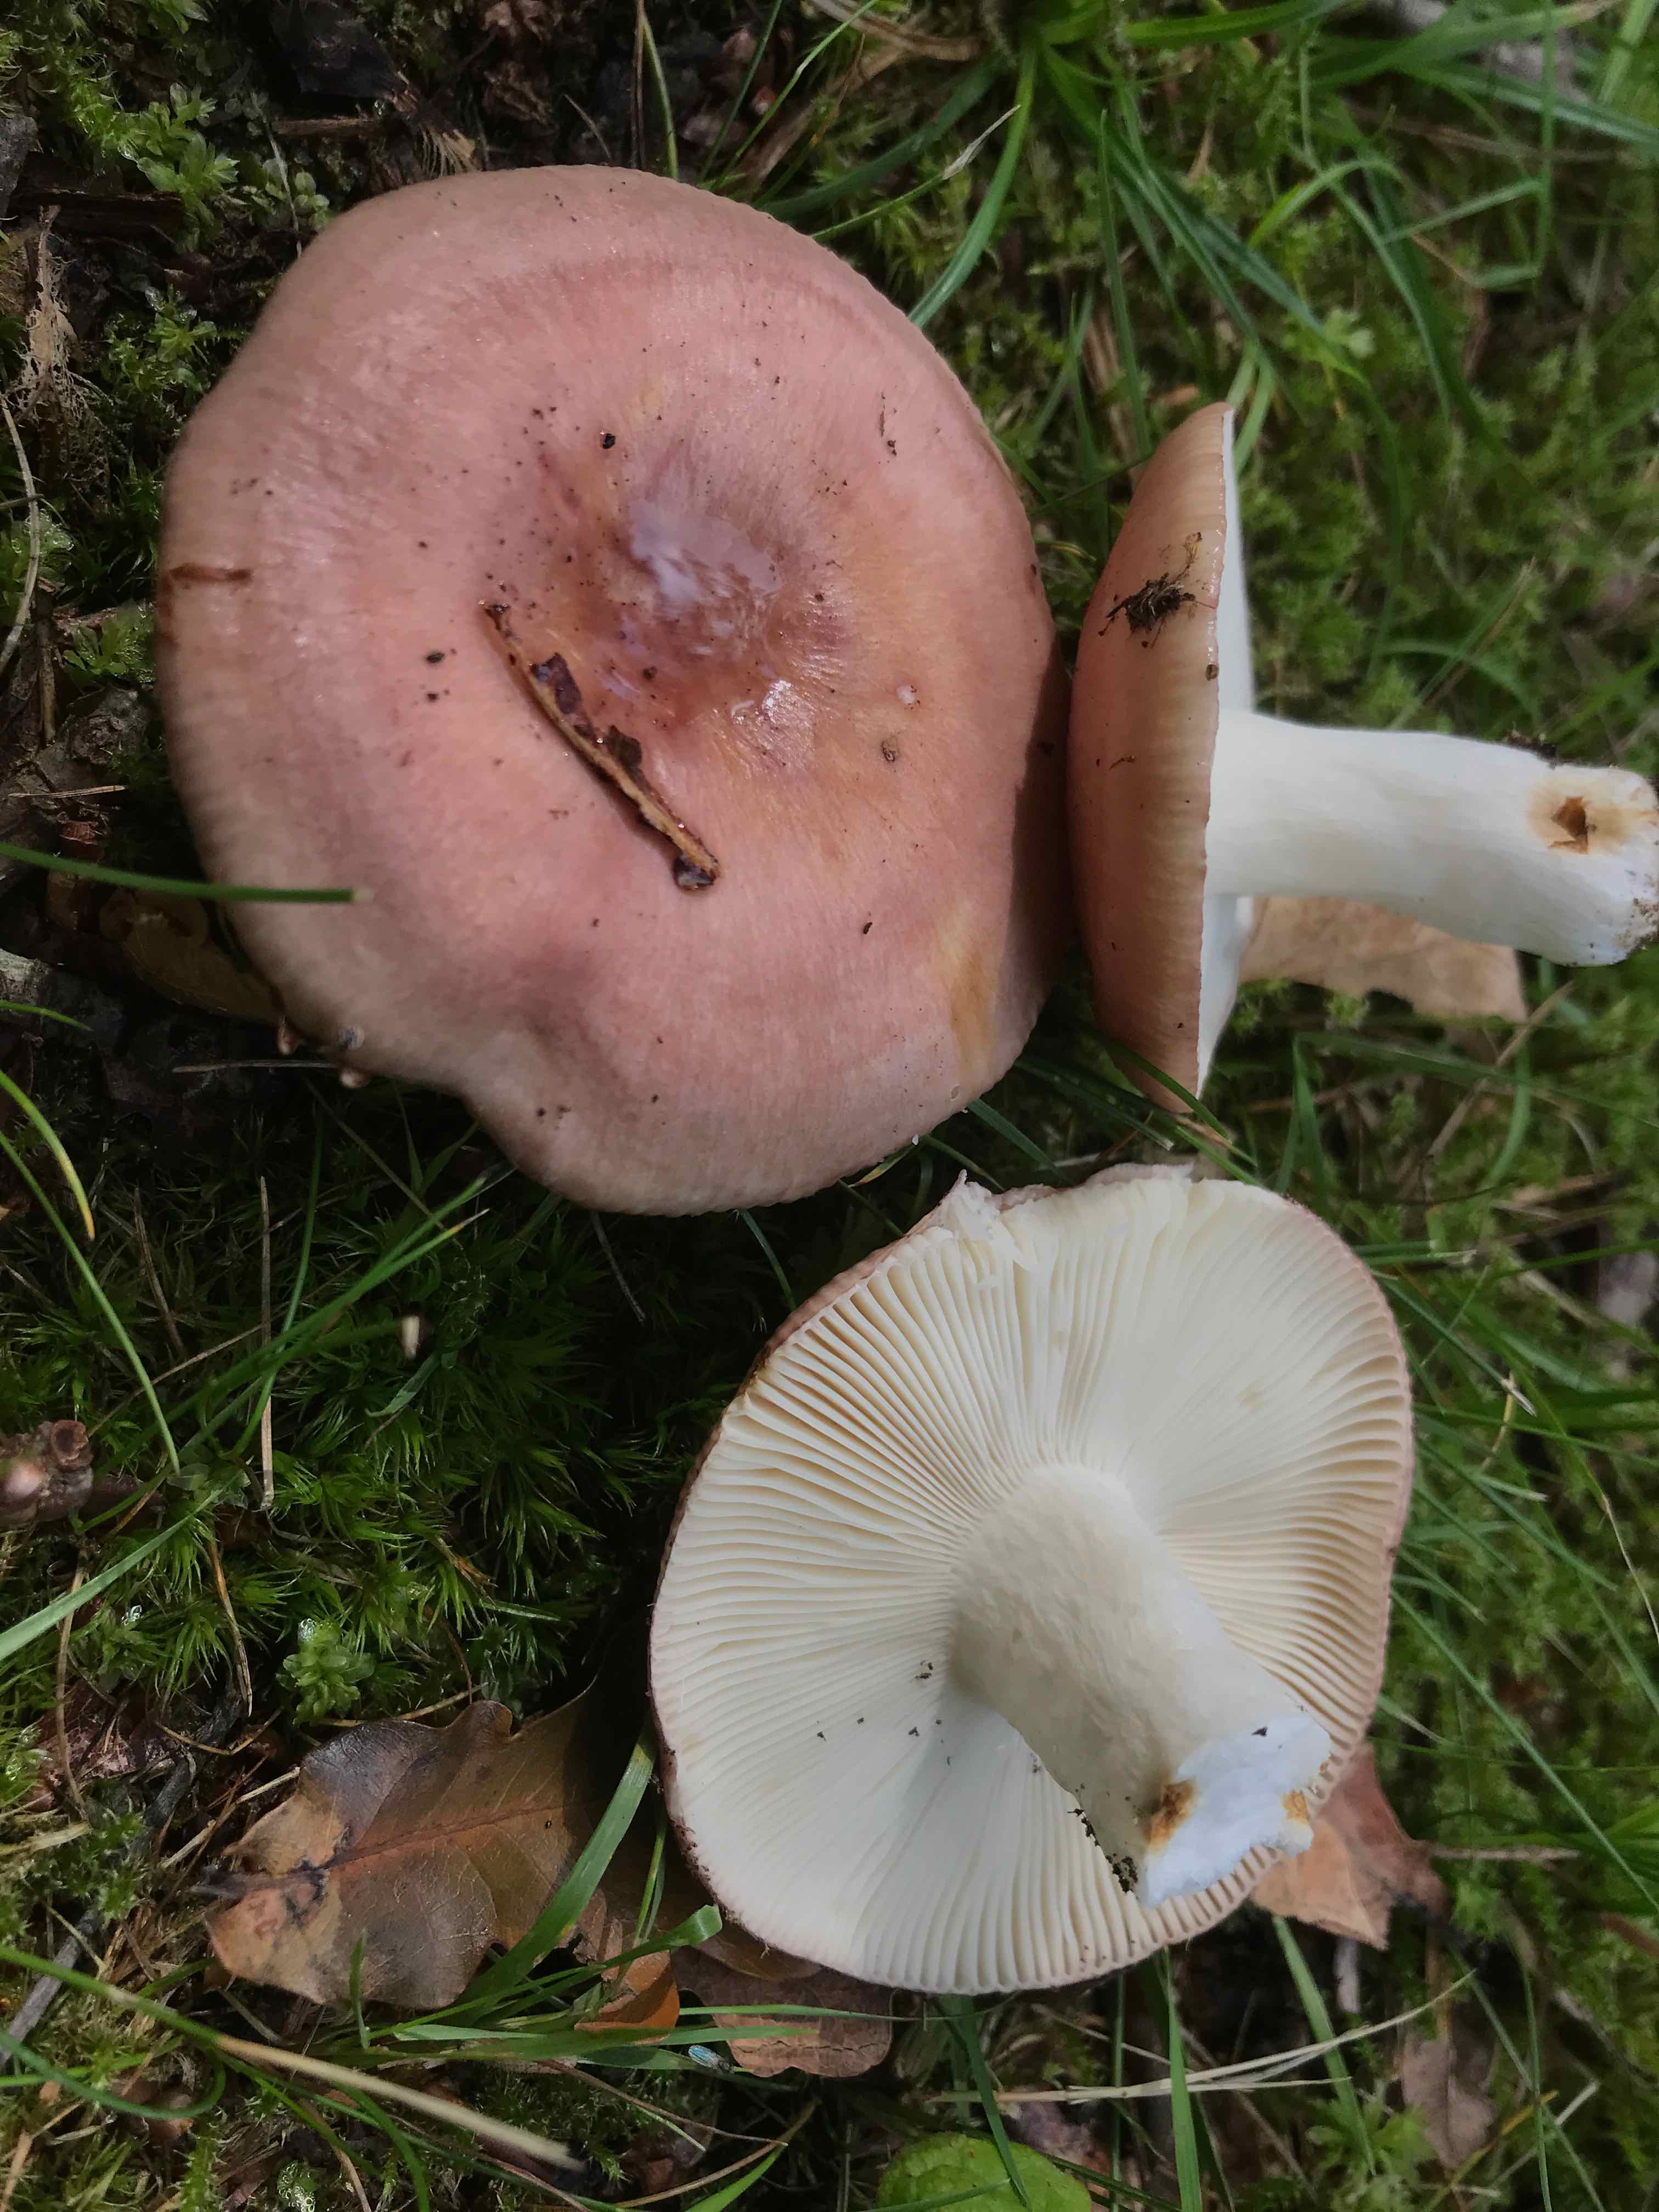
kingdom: Fungi
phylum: Basidiomycota
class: Agaricomycetes
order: Russulales
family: Russulaceae
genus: Russula
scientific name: Russula vesca
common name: spiselig skørhat
